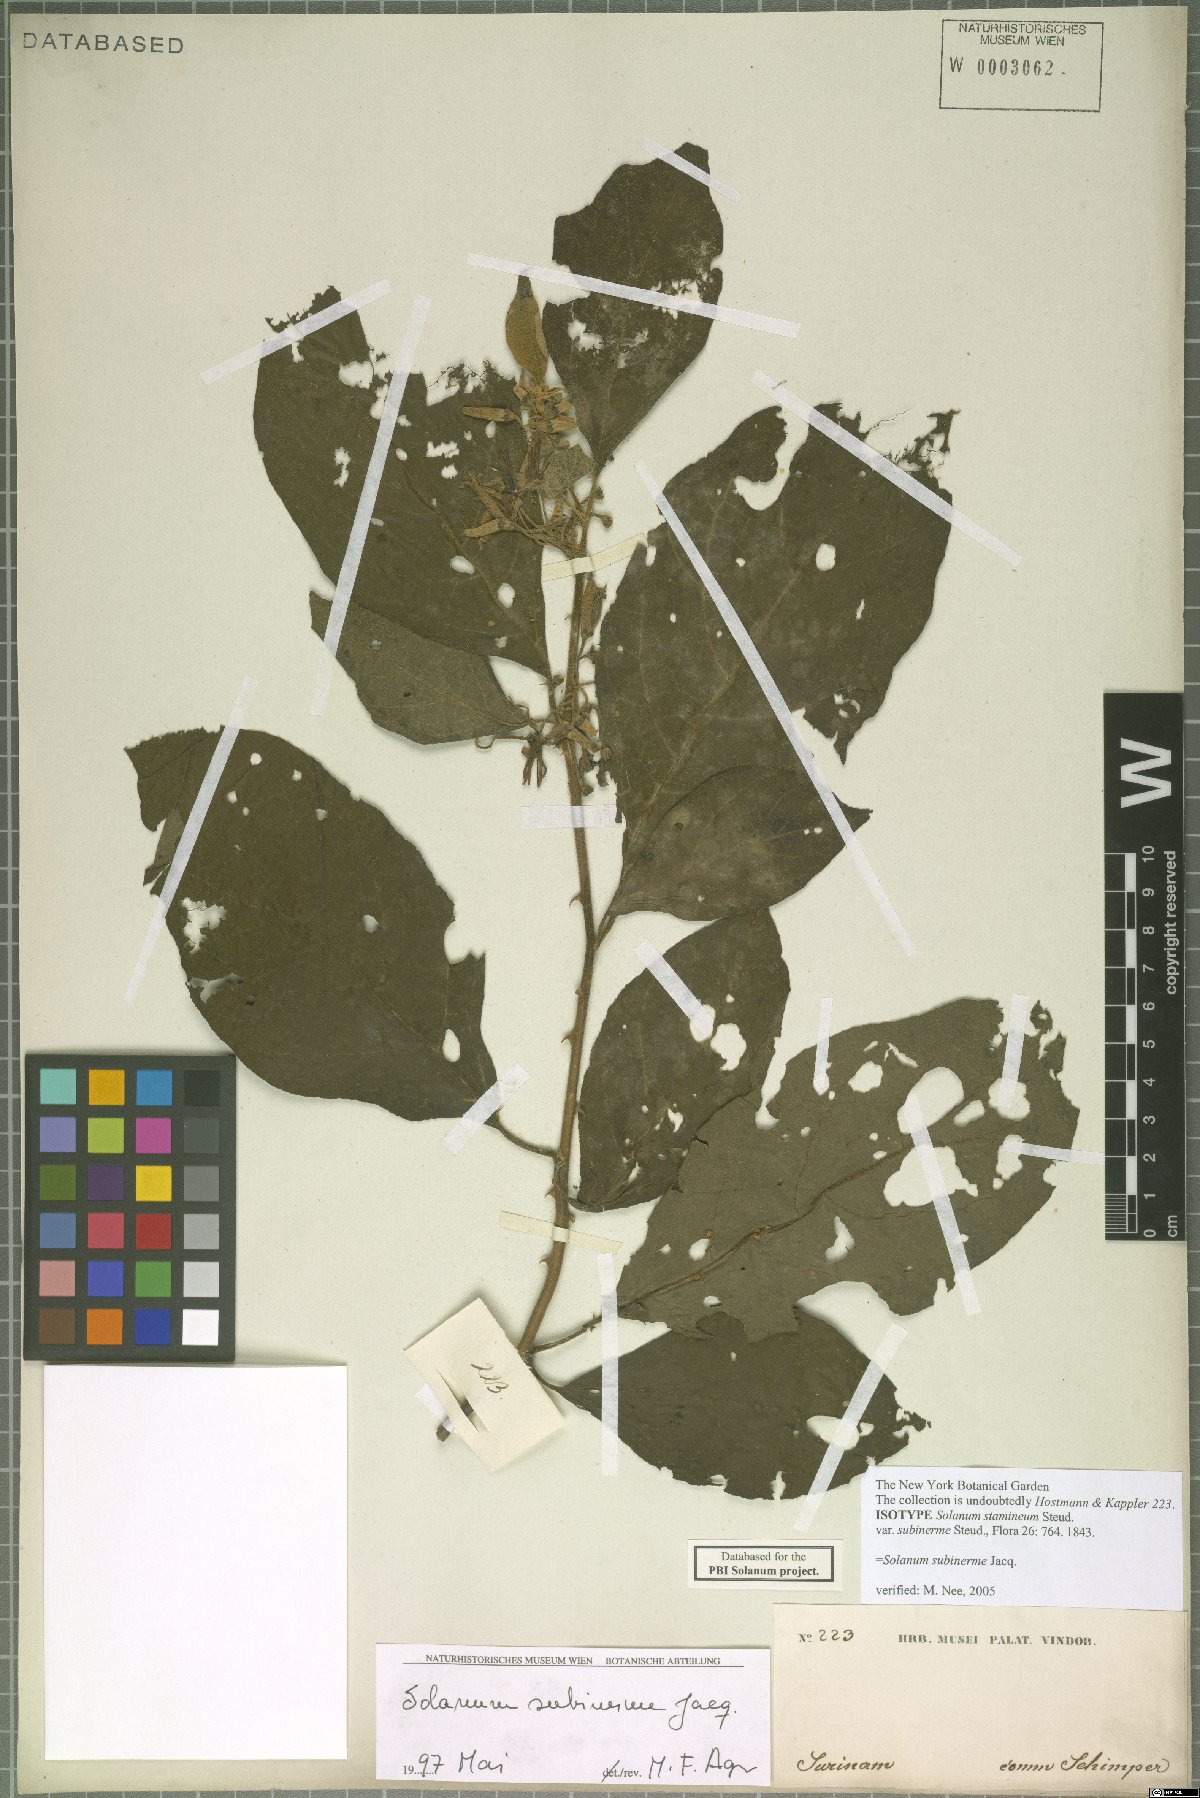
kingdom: Plantae
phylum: Tracheophyta
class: Magnoliopsida
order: Solanales
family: Solanaceae
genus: Solanum
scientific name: Solanum subinerme
